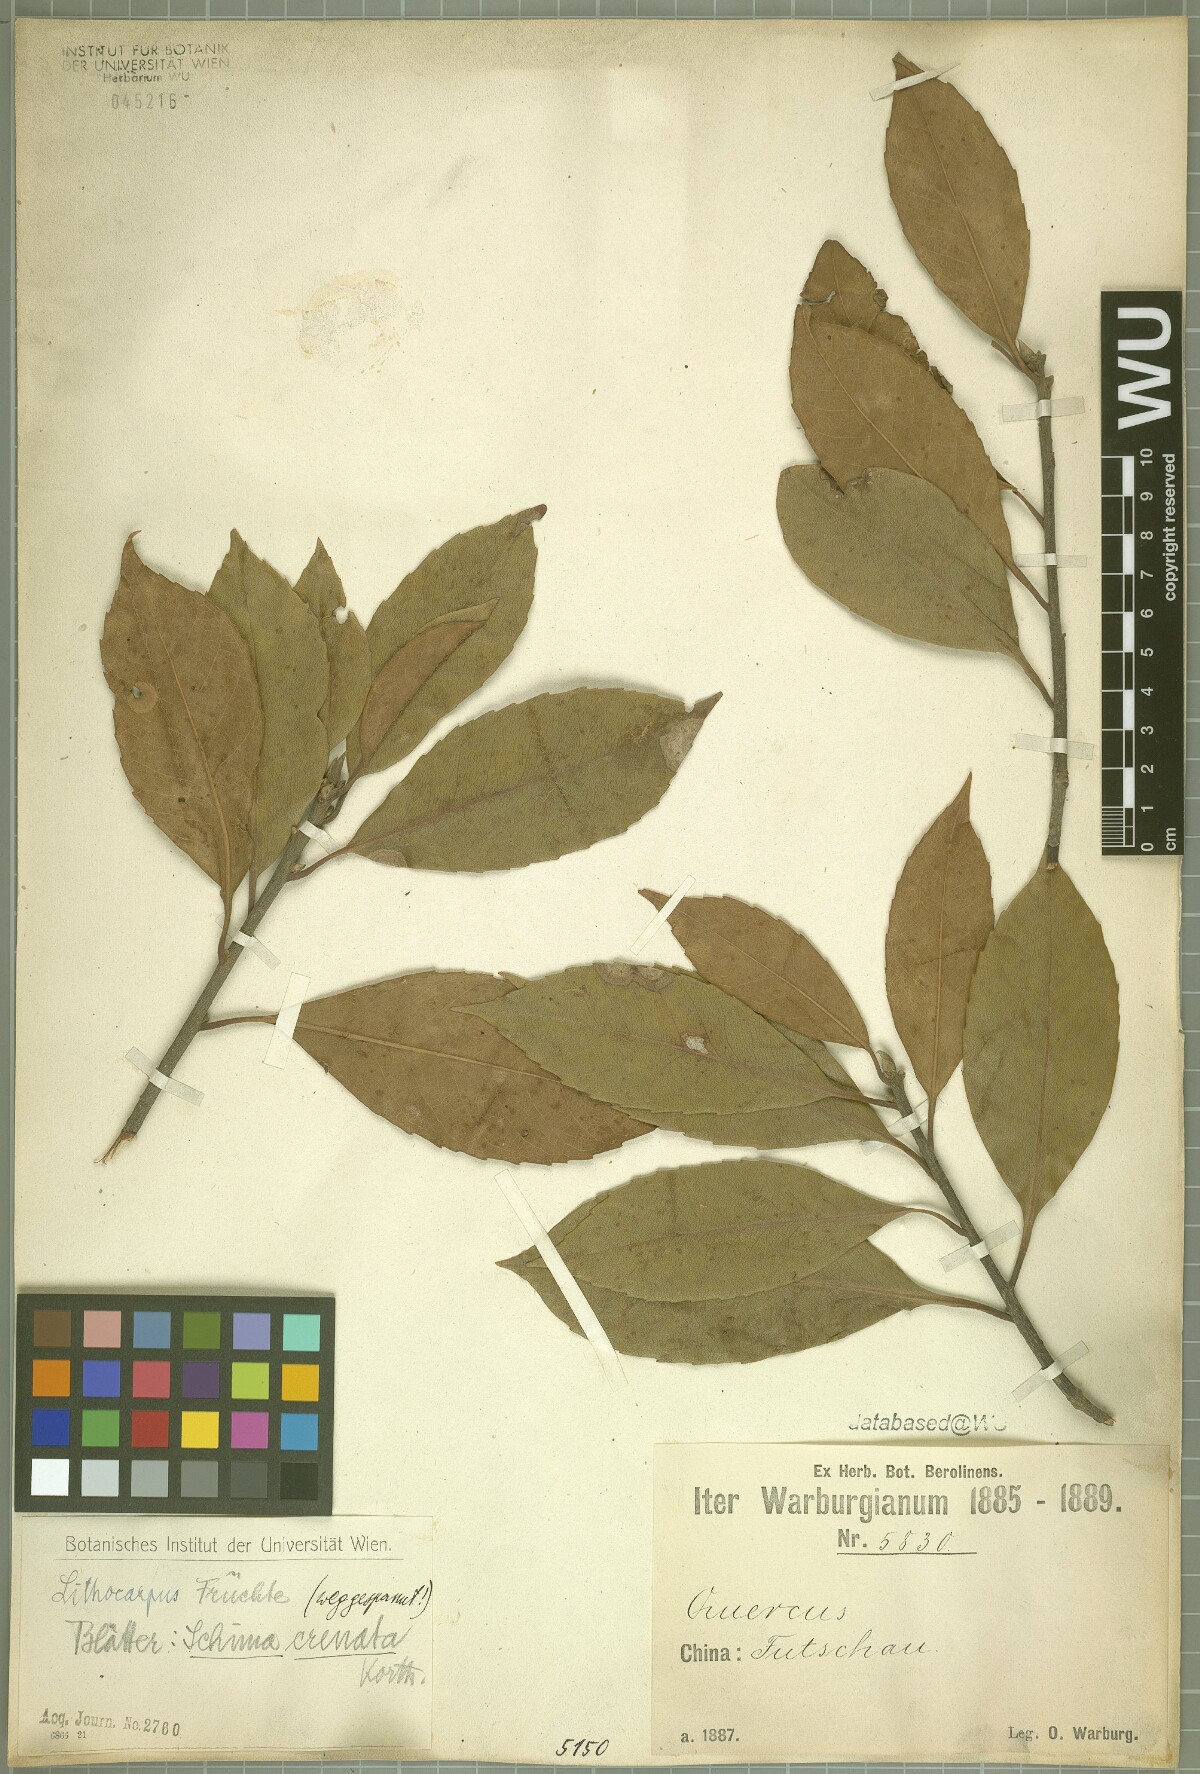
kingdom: Plantae
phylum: Tracheophyta
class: Magnoliopsida
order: Ericales
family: Theaceae
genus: Schima
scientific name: Schima wallichii
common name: Schima
